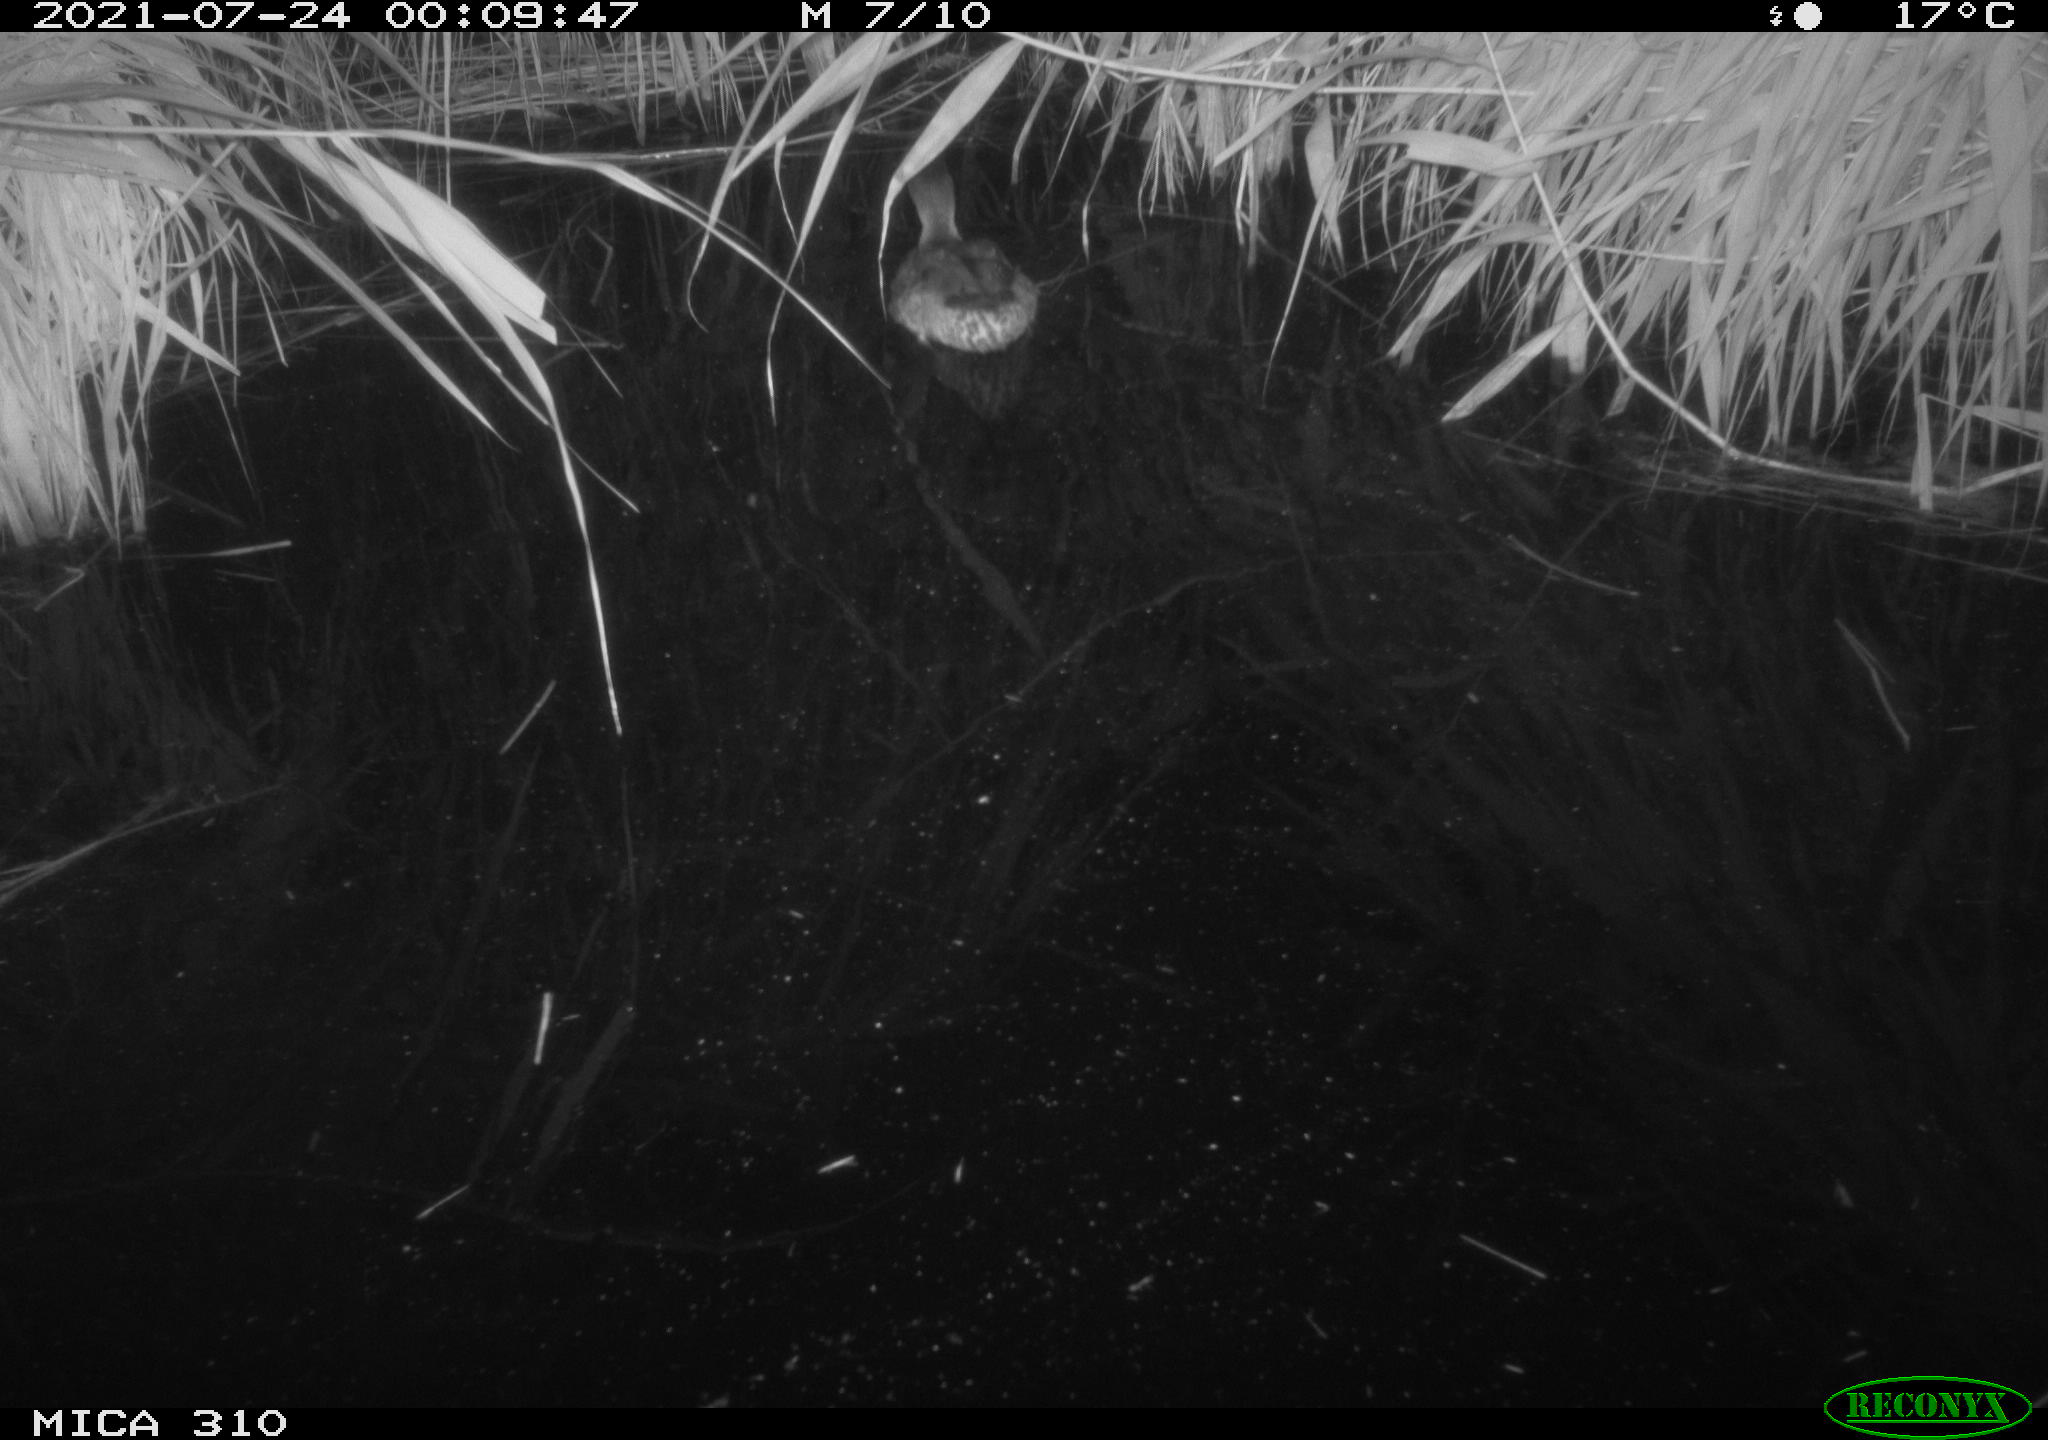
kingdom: Animalia
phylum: Chordata
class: Aves
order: Anseriformes
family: Anatidae
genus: Anas
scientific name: Anas platyrhynchos
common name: Mallard
